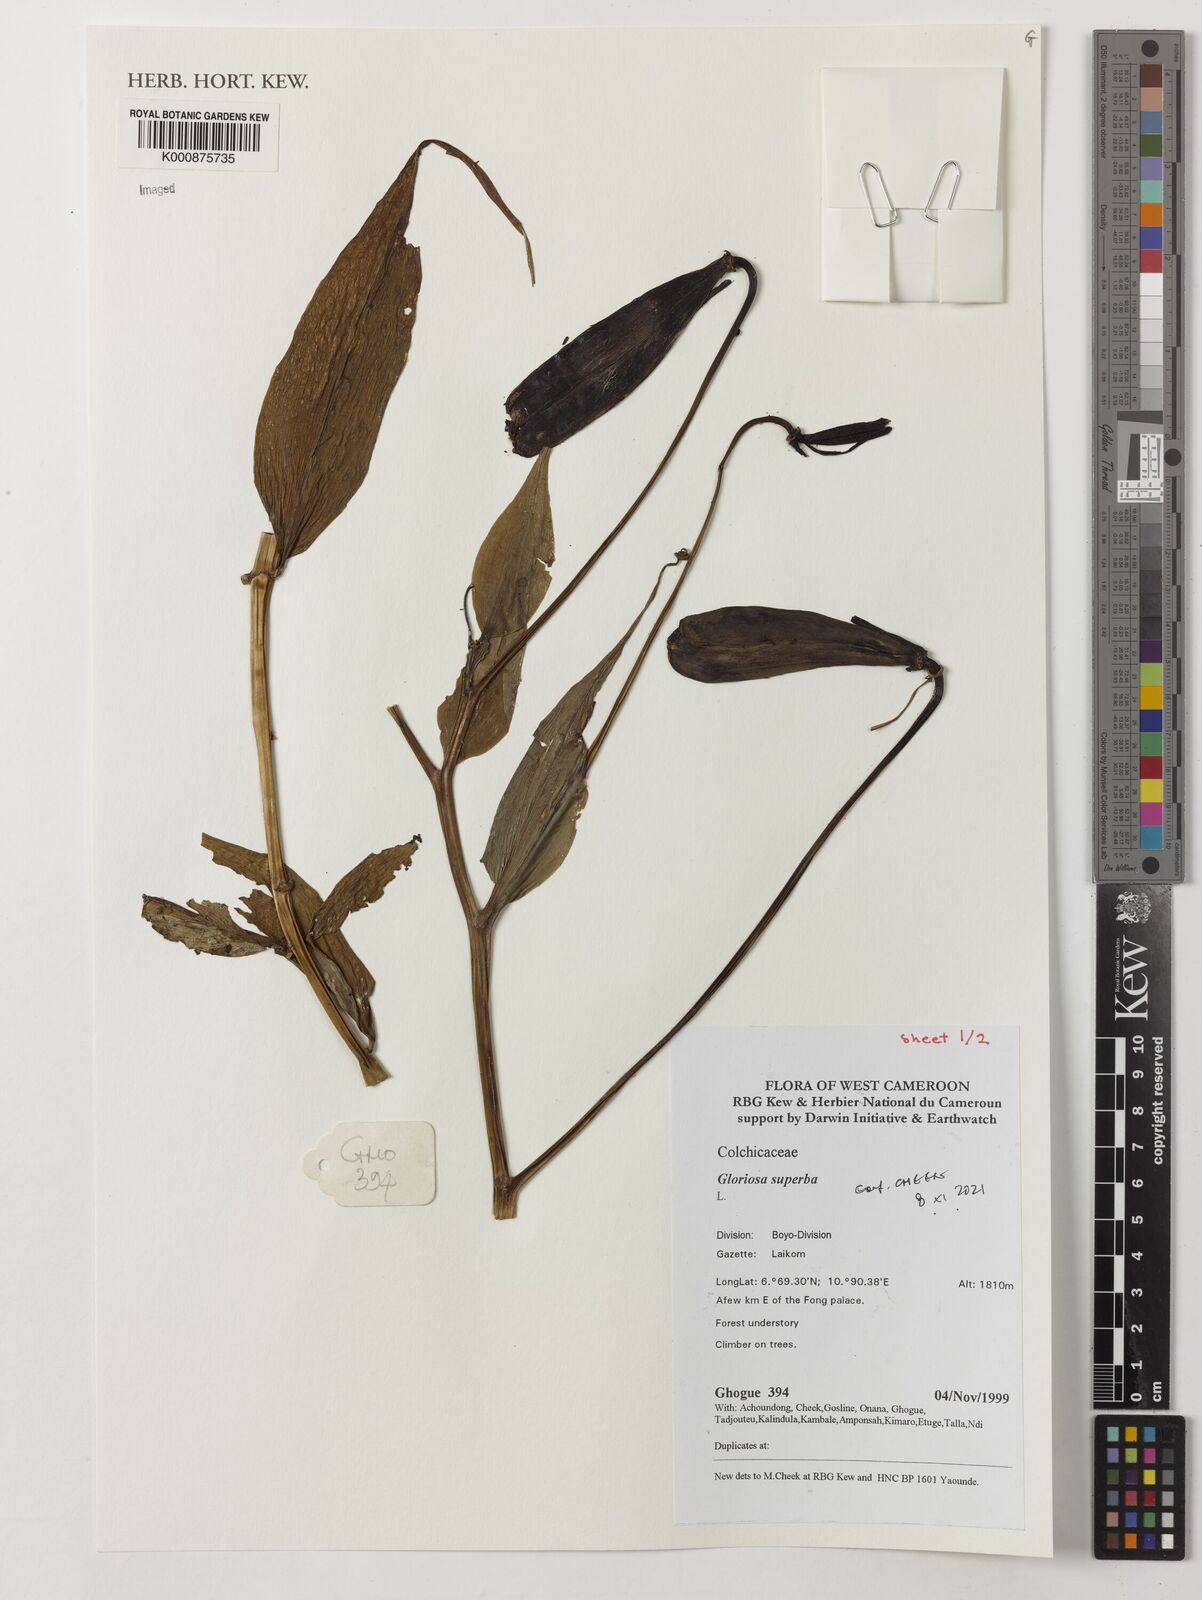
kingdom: Plantae
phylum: Tracheophyta
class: Liliopsida
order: Liliales
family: Colchicaceae
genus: Gloriosa
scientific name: Gloriosa superba
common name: Flame lily
